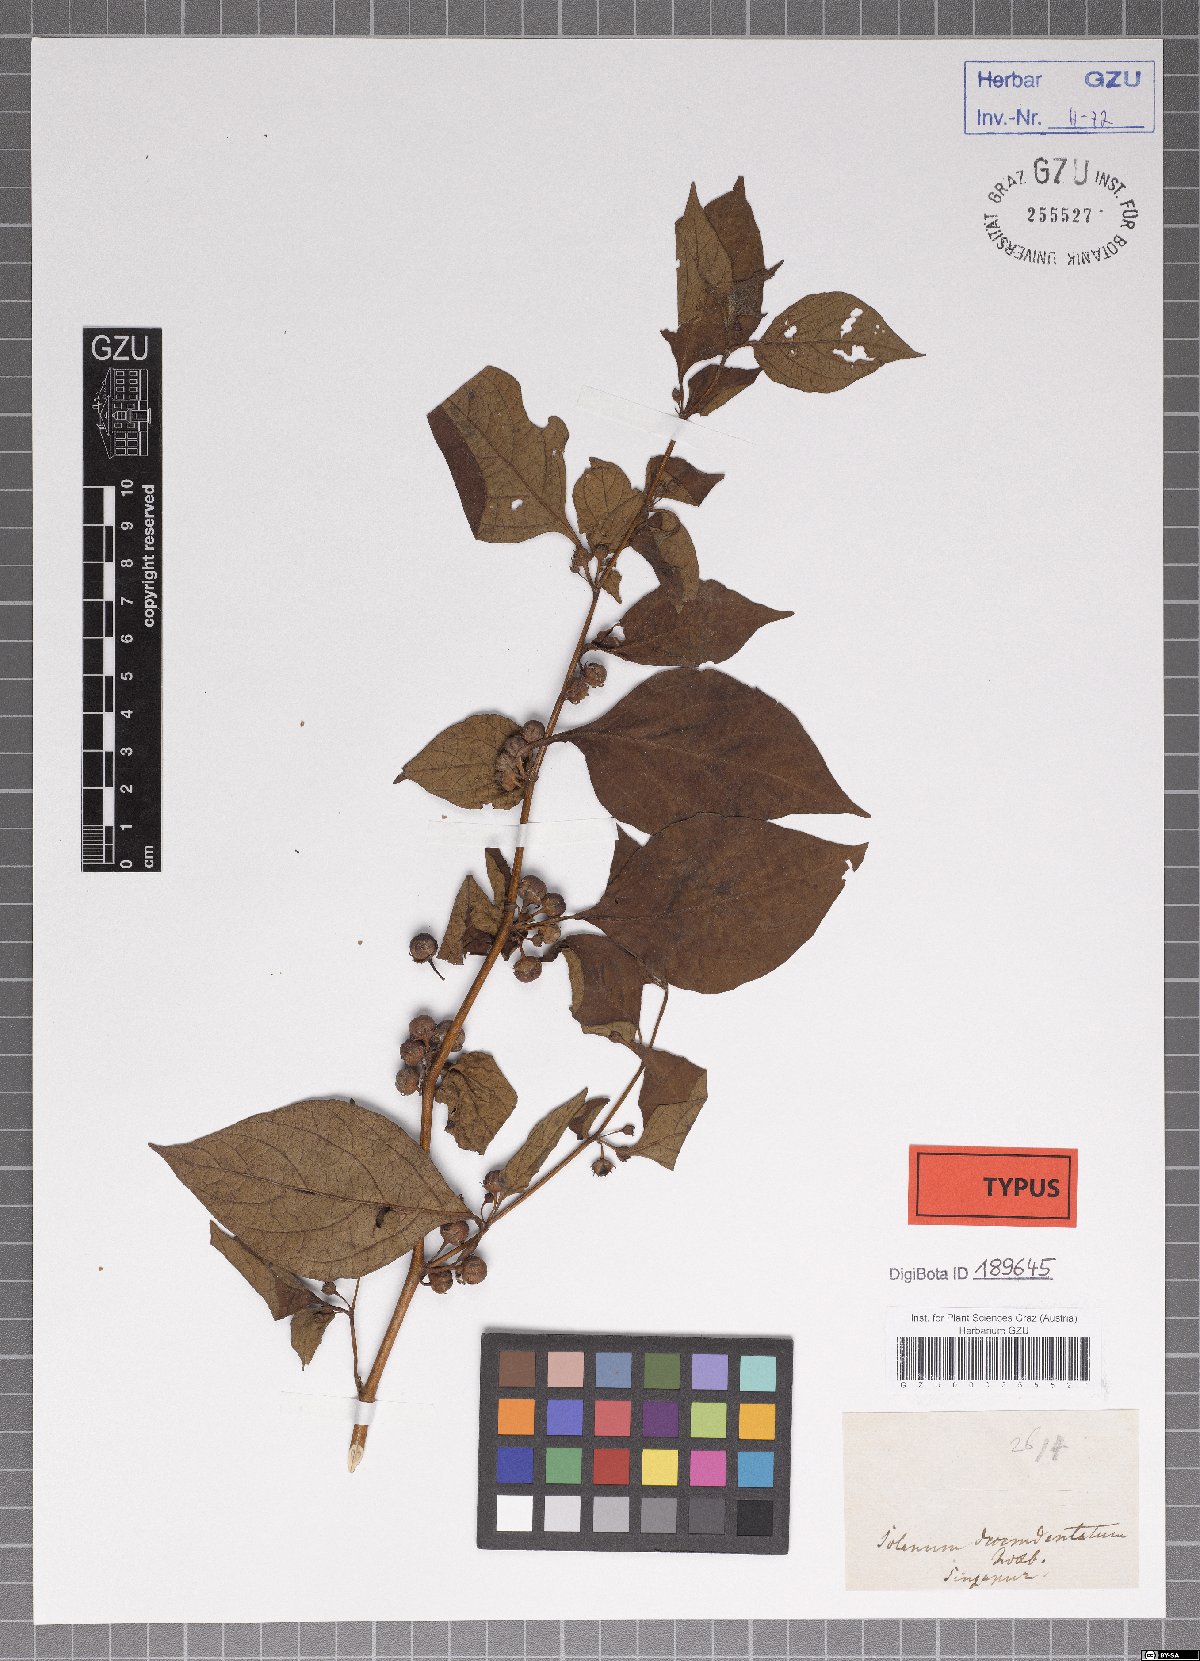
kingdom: Plantae
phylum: Tracheophyta
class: Magnoliopsida
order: Solanales
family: Solanaceae
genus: Lycianthes
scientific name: Lycianthes biflora
